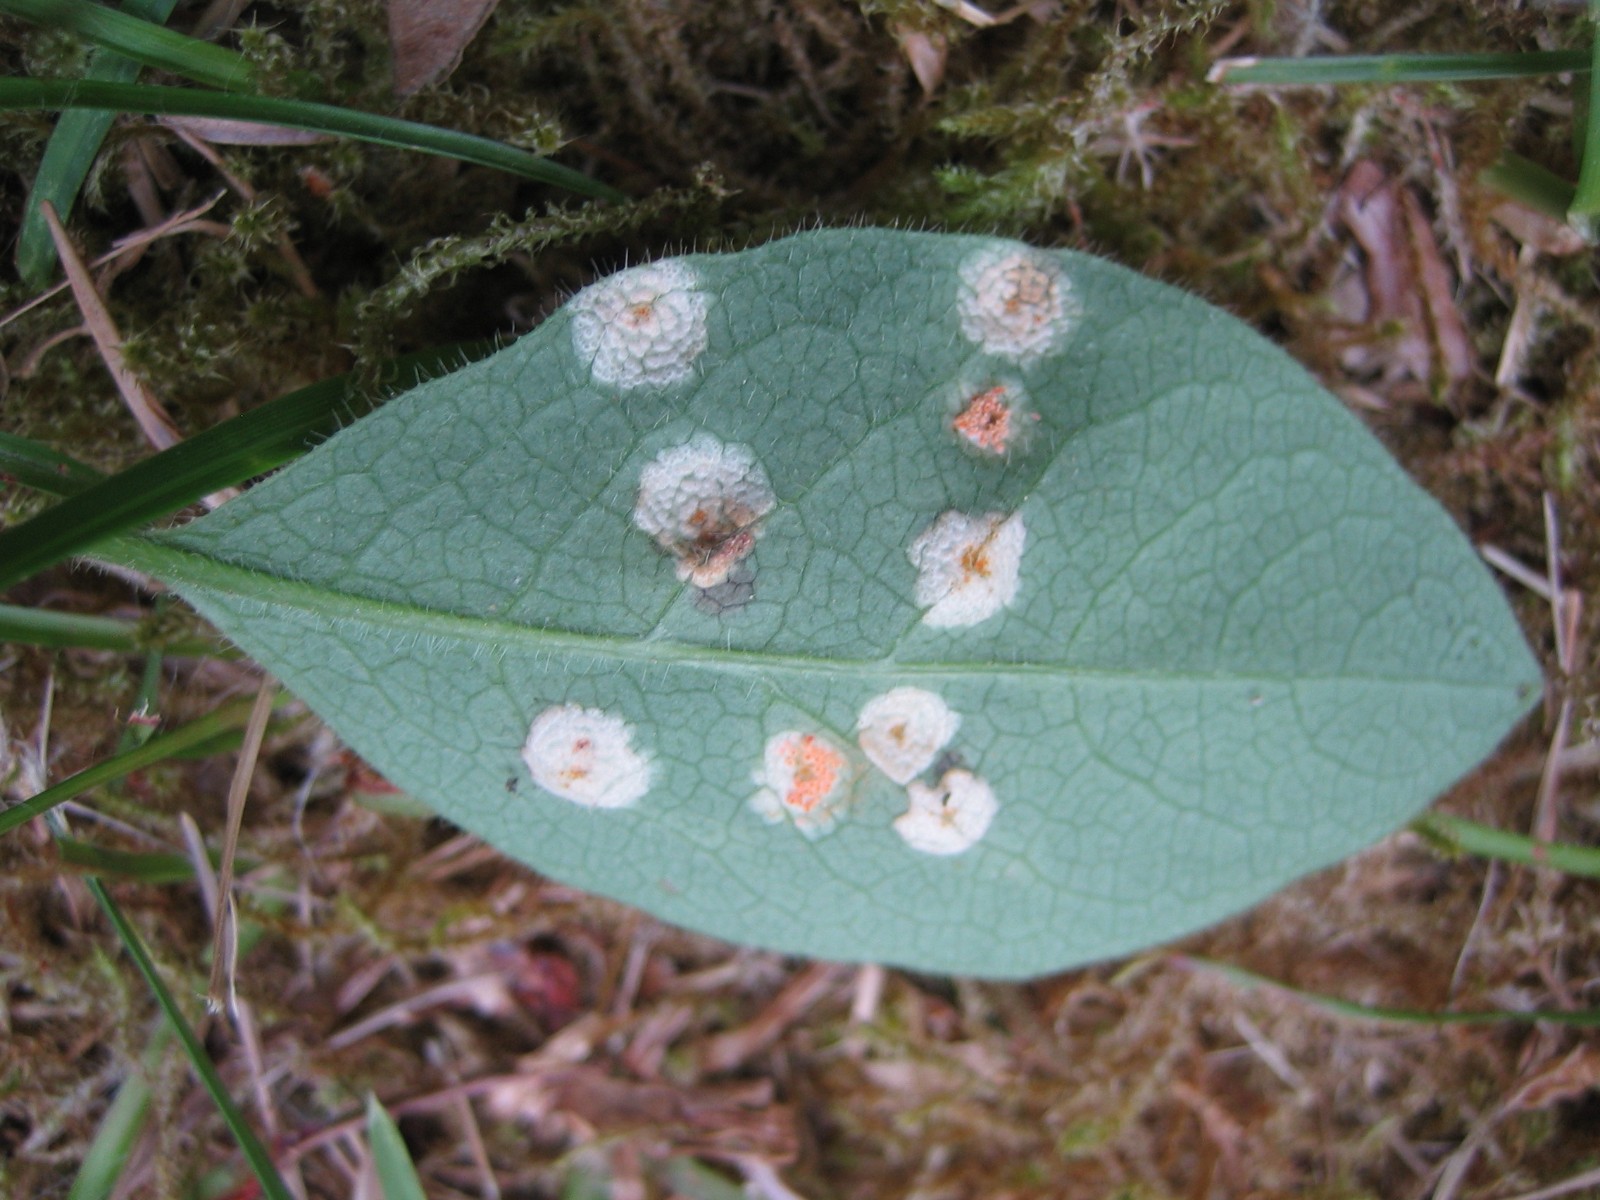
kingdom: Fungi
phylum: Basidiomycota
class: Pucciniomycetes
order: Pucciniales
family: Pucciniaceae
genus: Puccinia
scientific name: Puccinia festucae
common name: gedeblad-tvecellerust
